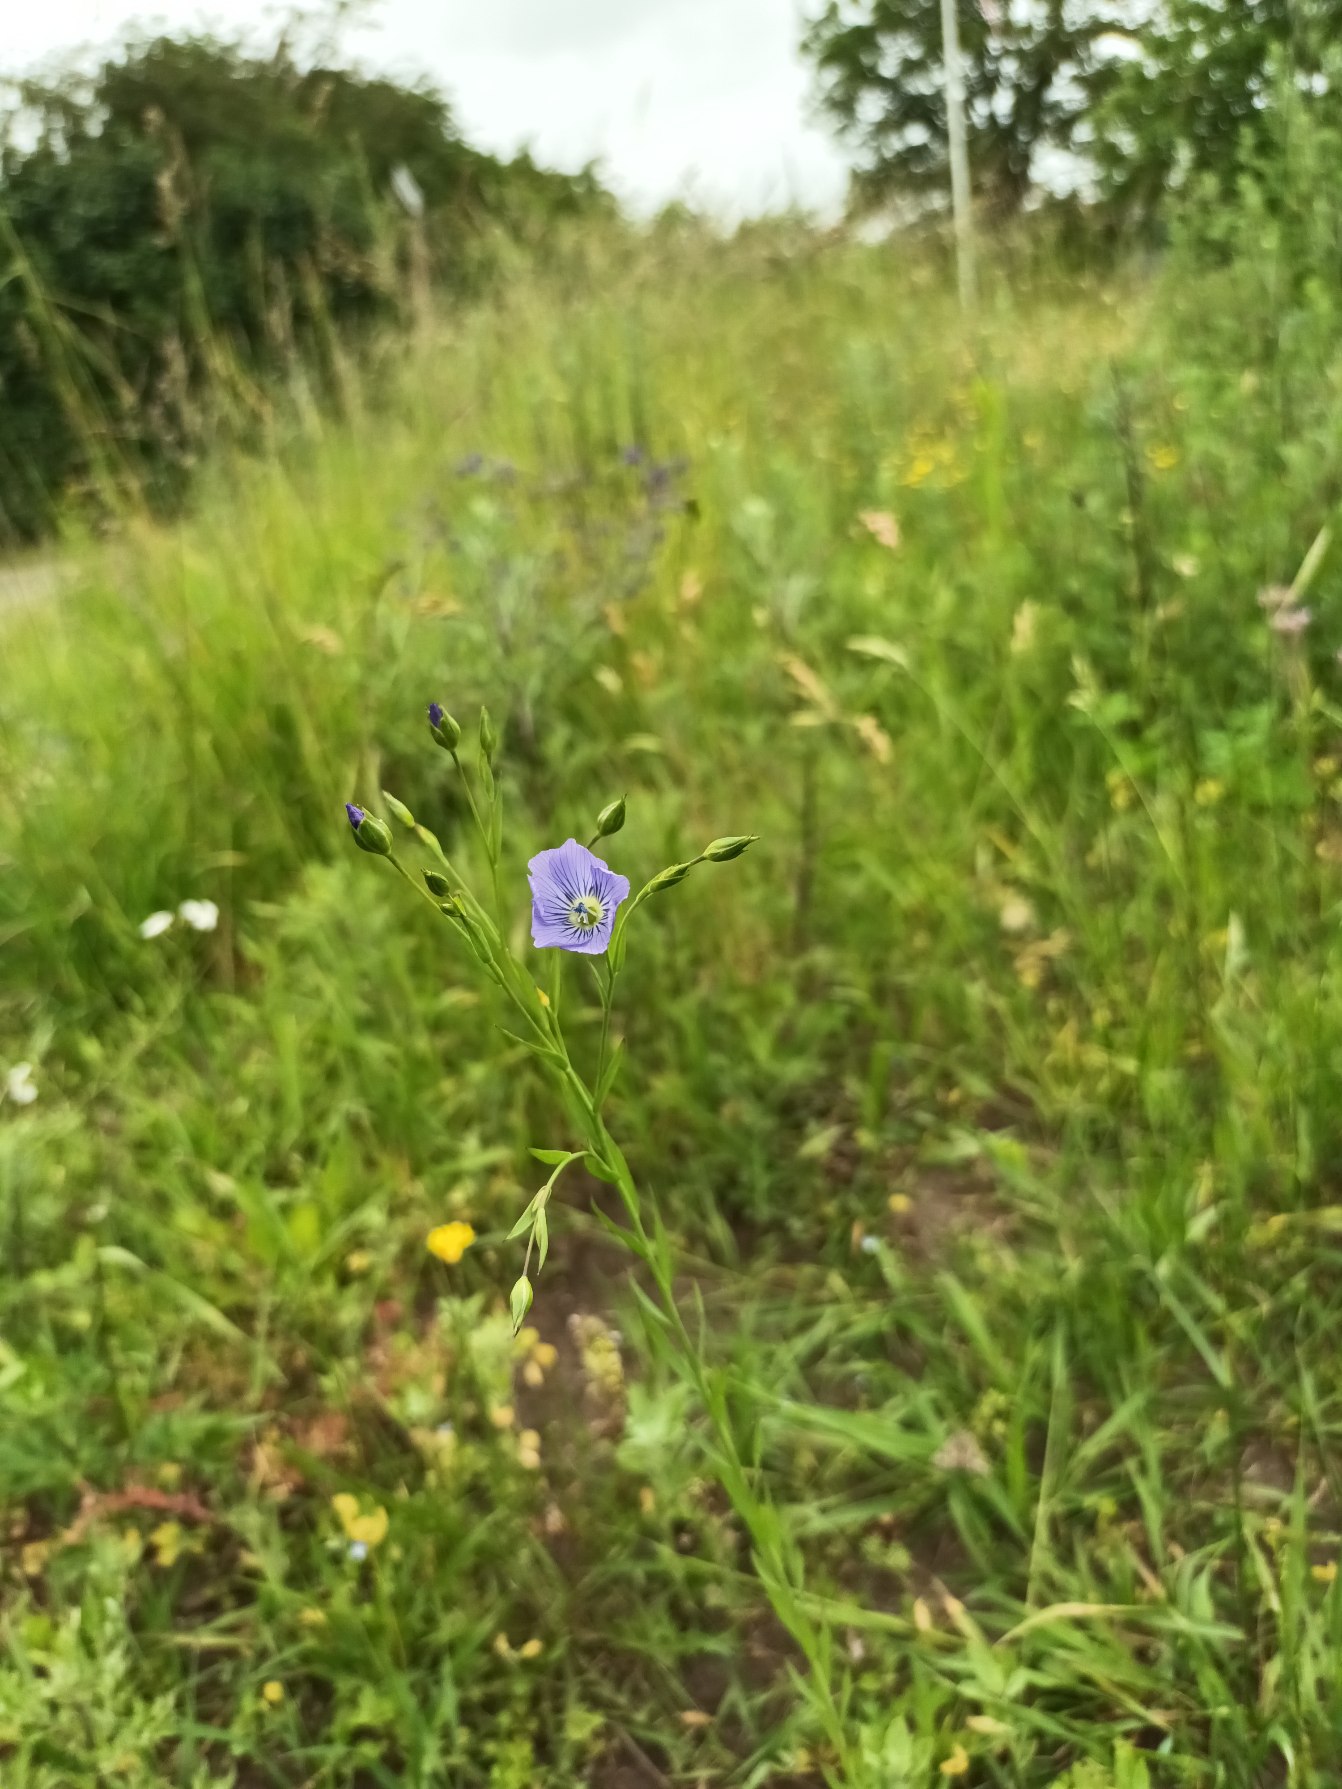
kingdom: Plantae
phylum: Tracheophyta
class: Magnoliopsida
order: Malpighiales
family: Linaceae
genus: Linum
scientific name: Linum usitatissimum
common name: Almindelig hør
